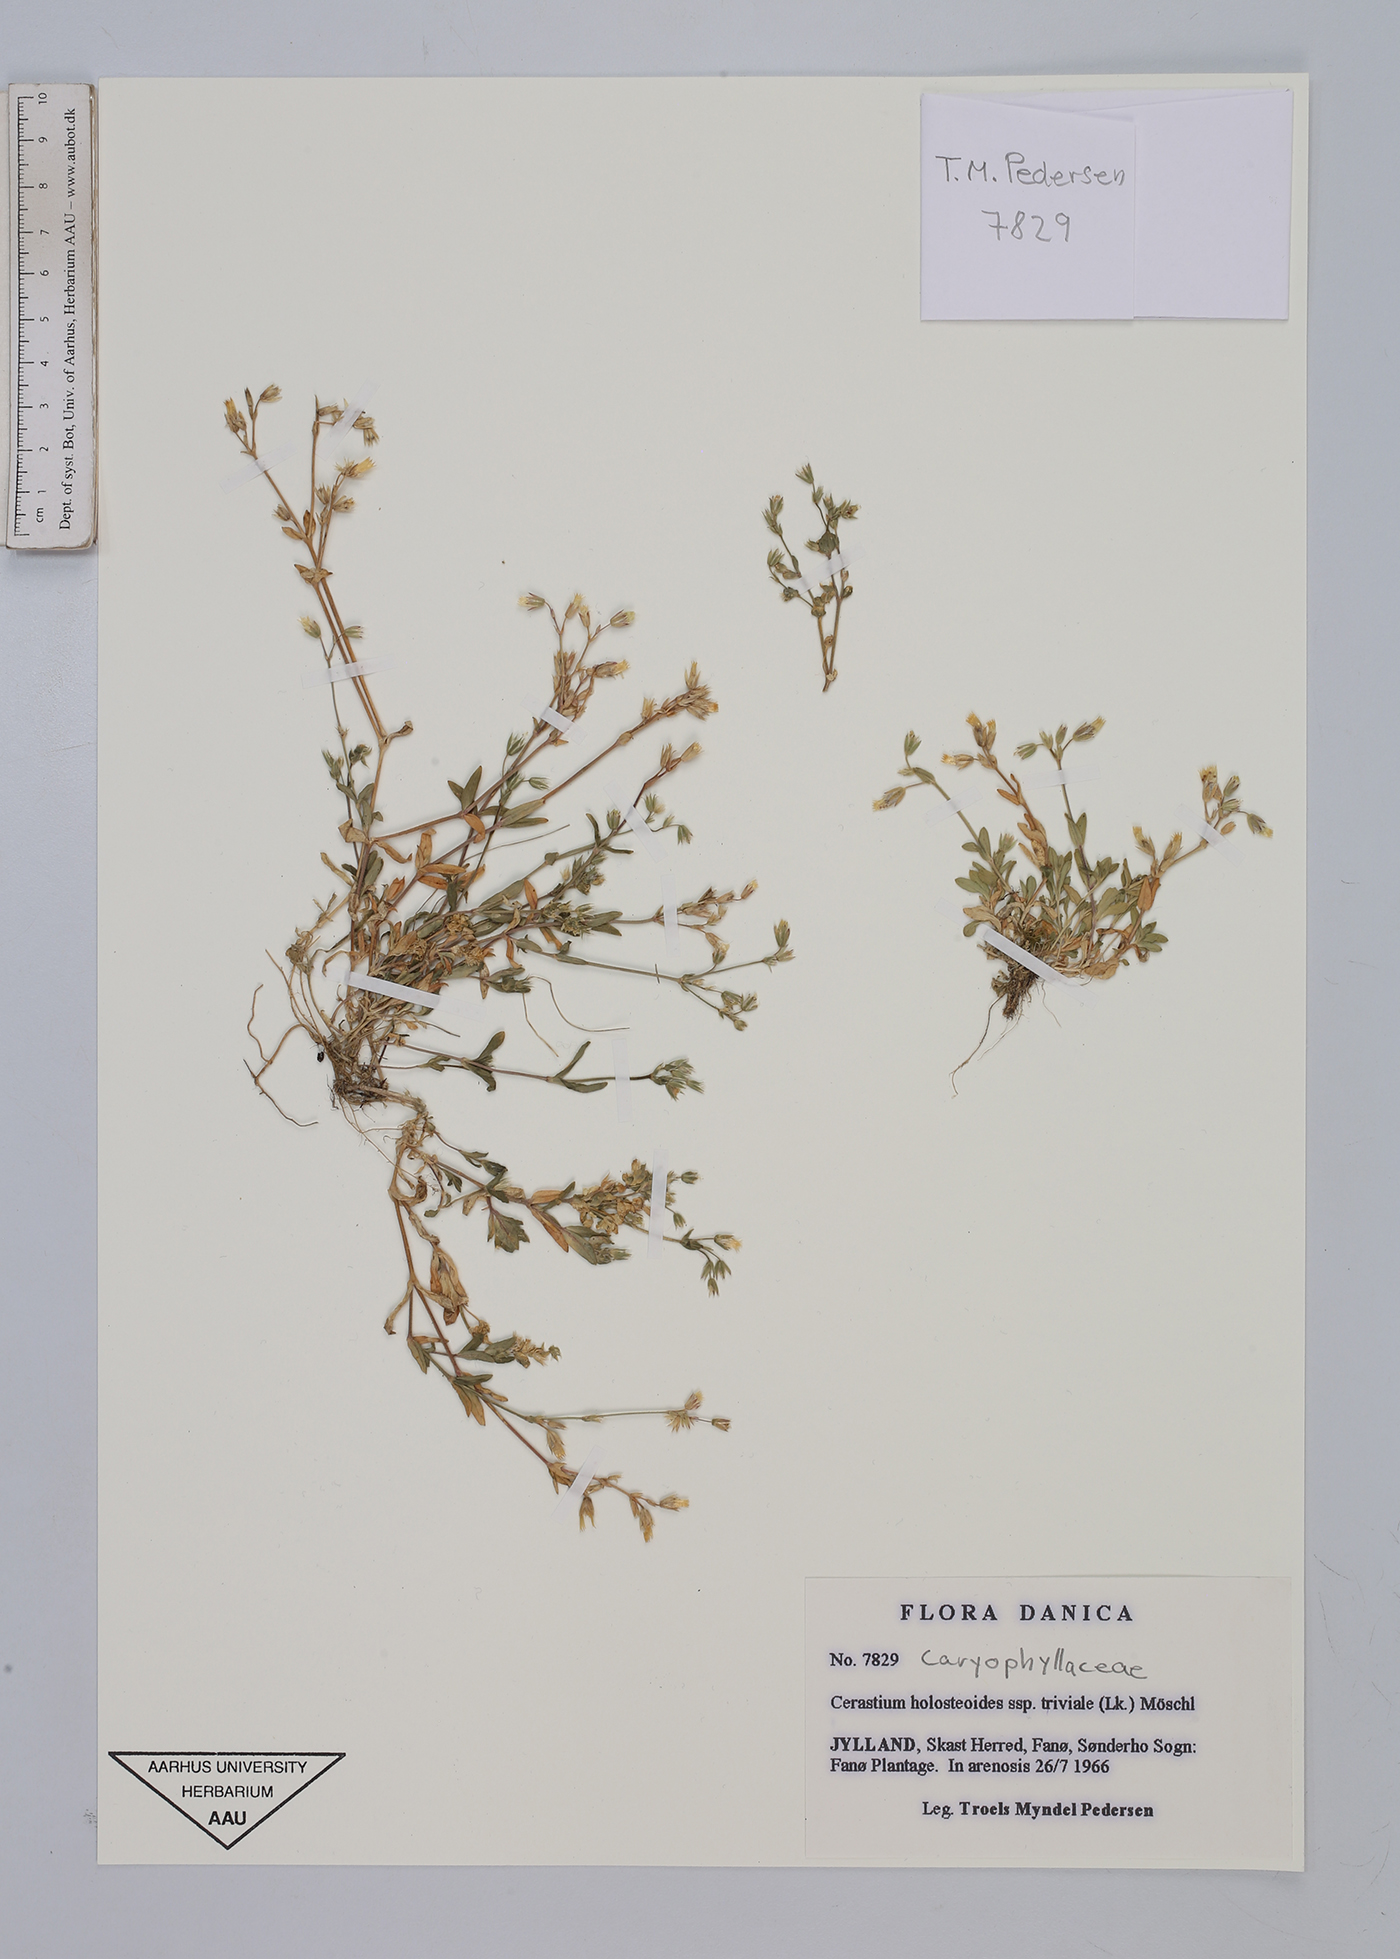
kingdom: Plantae
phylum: Tracheophyta
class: Magnoliopsida
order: Caryophyllales
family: Caryophyllaceae
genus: Cerastium
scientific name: Cerastium holosteoides
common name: Big chickweed
